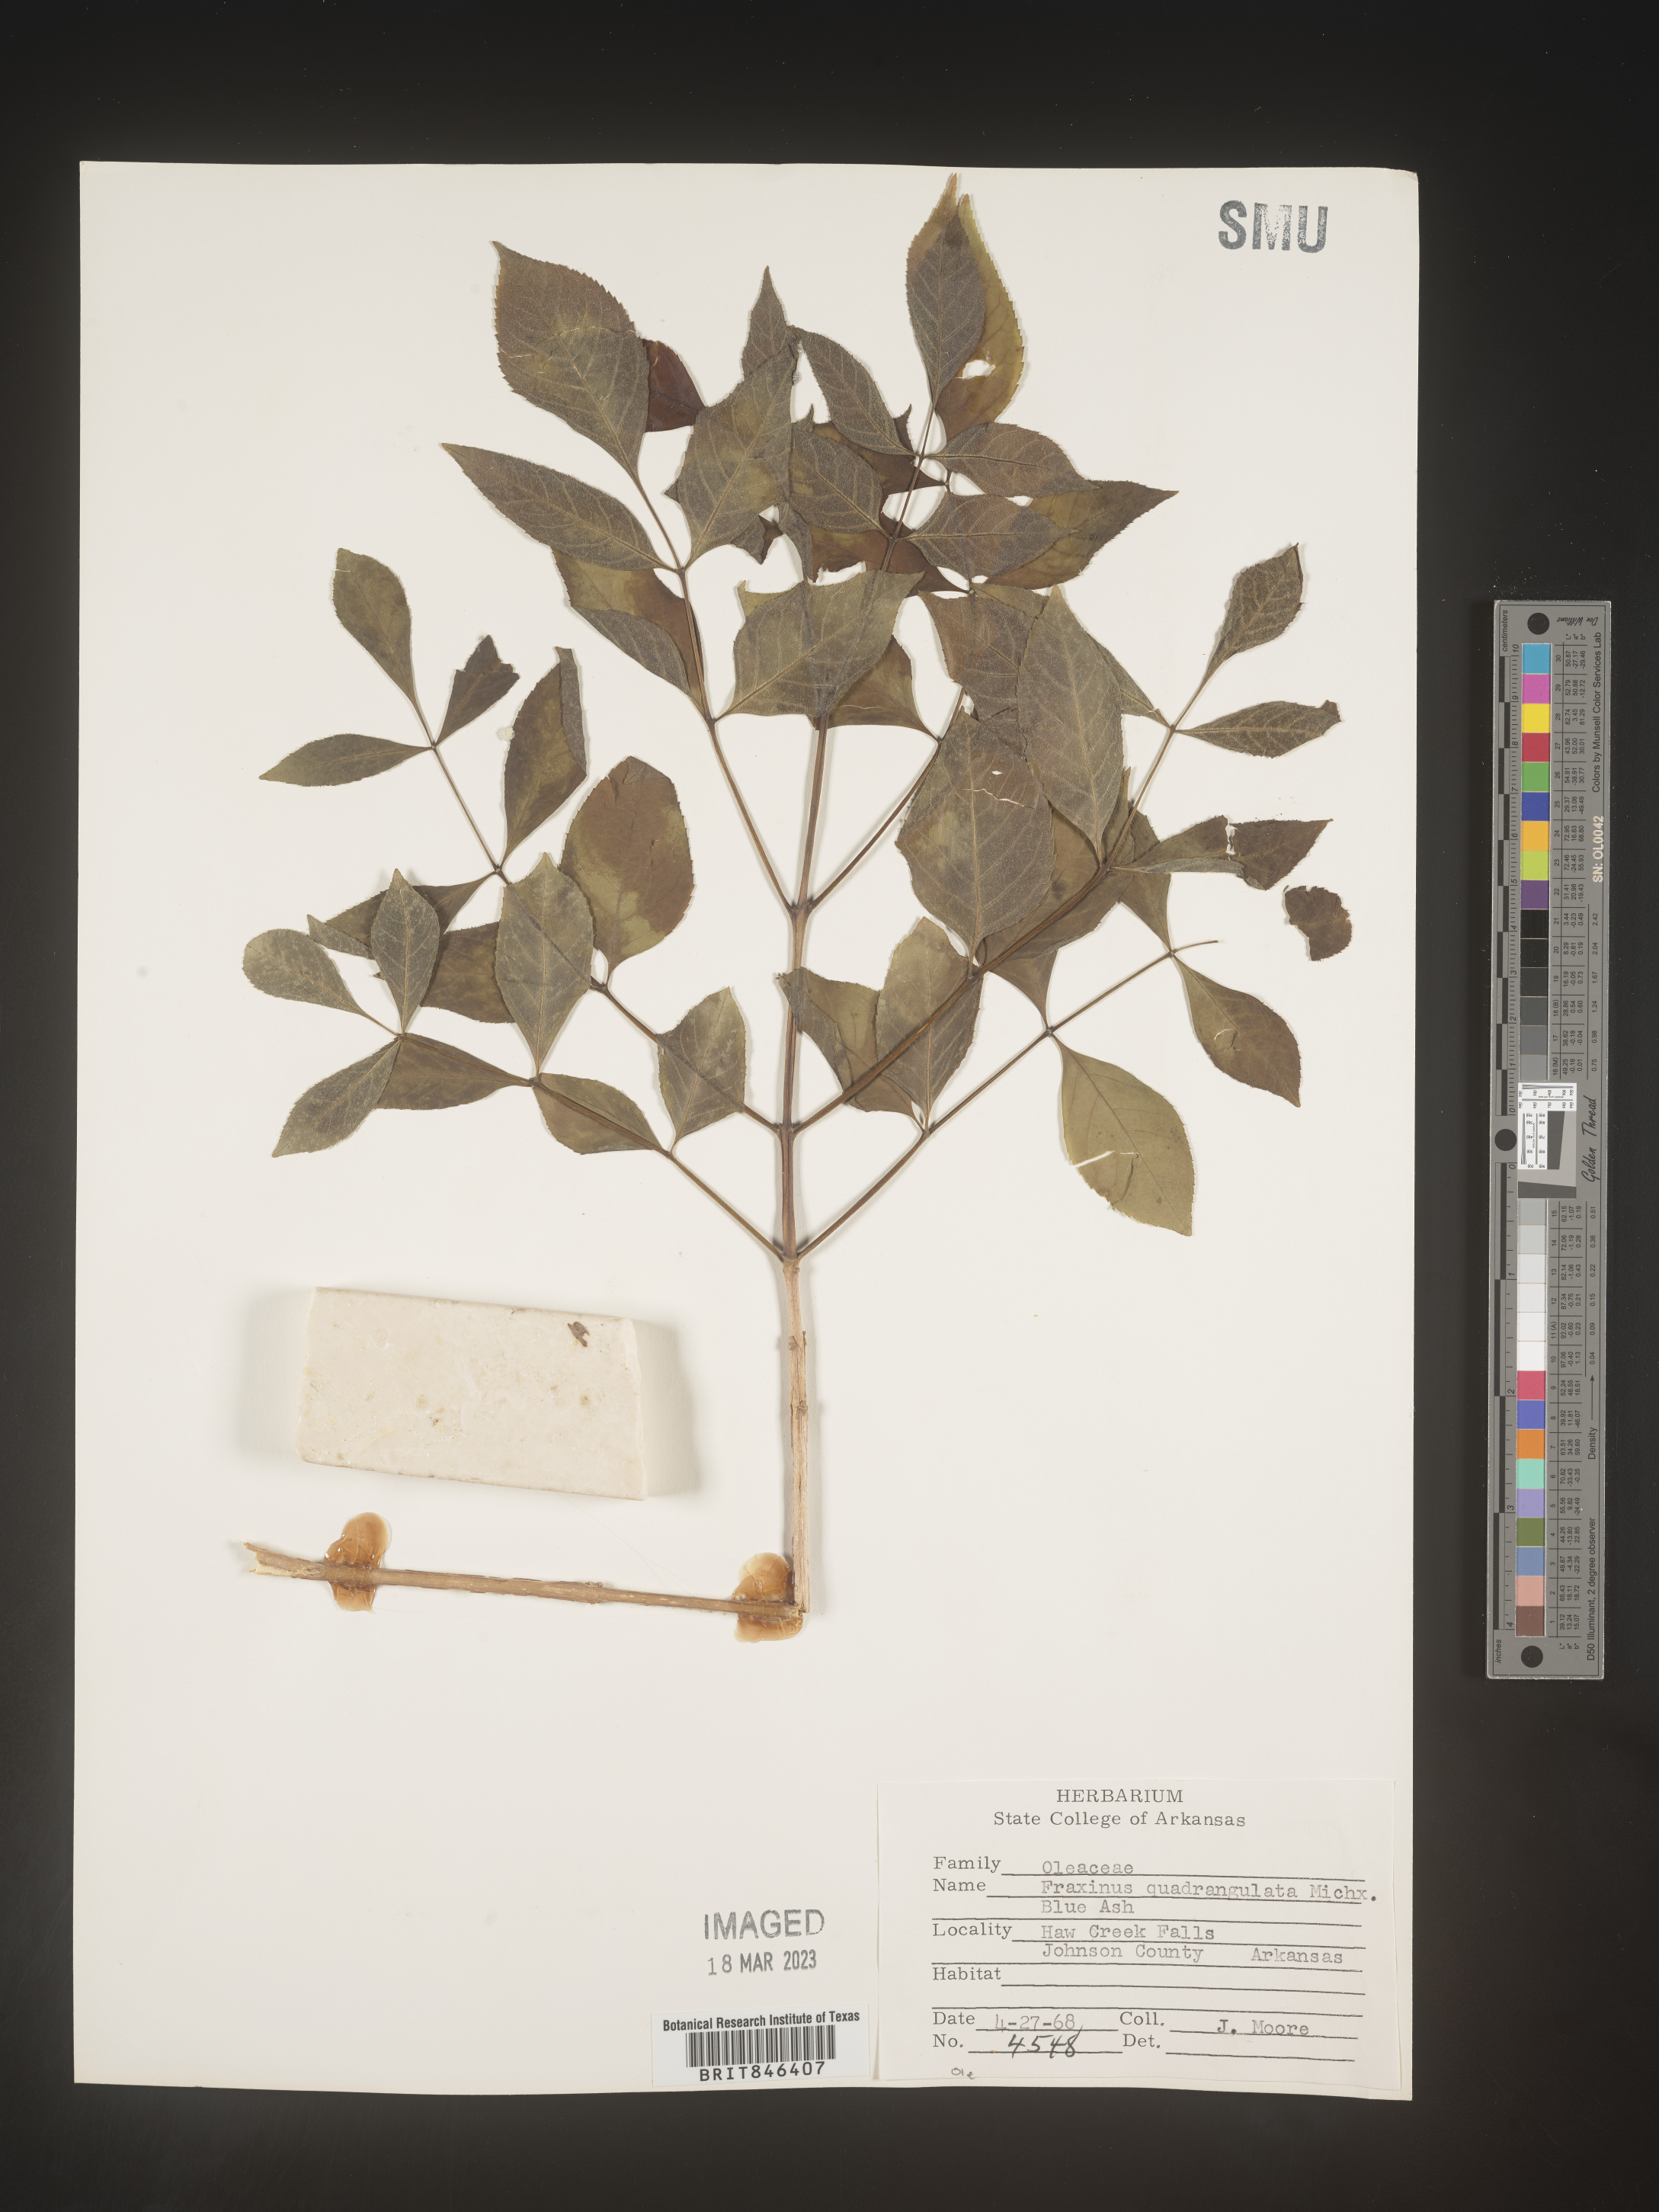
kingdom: Plantae
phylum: Tracheophyta
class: Magnoliopsida
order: Lamiales
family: Oleaceae
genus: Fraxinus
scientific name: Fraxinus quadrangulata
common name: Blue ash
